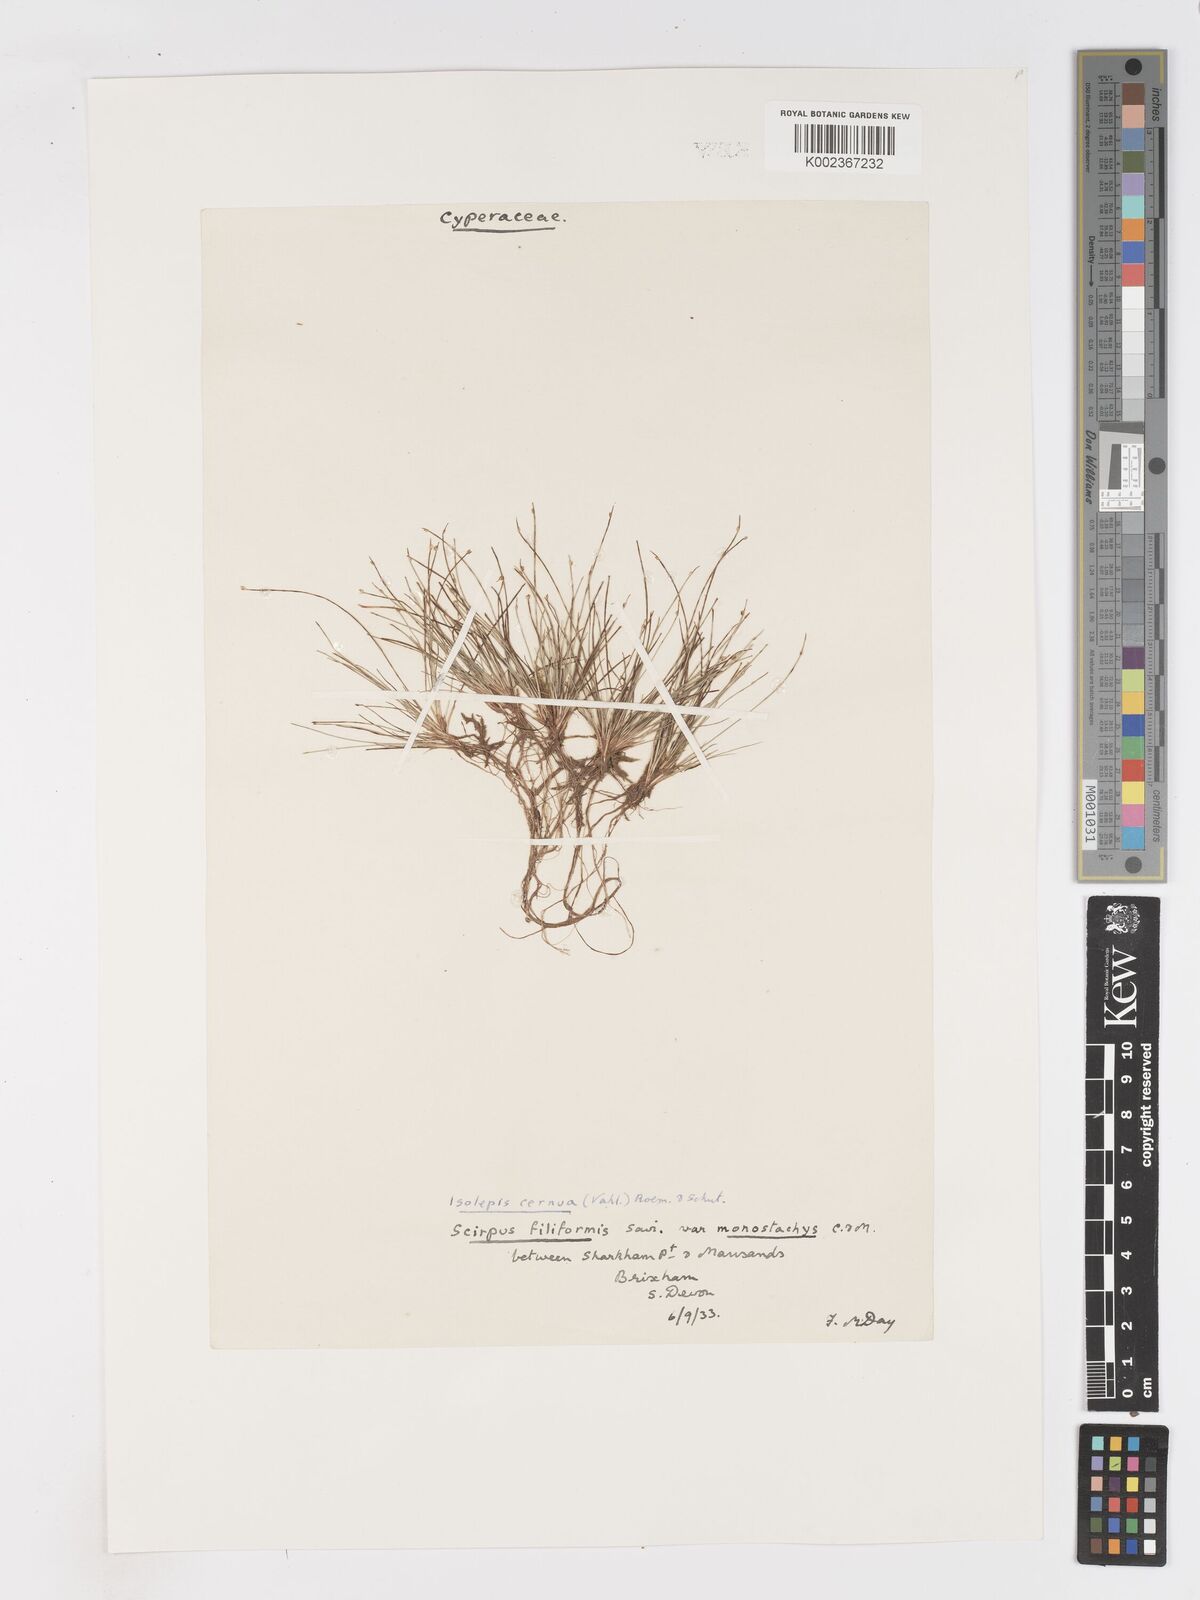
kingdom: Plantae
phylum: Tracheophyta
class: Liliopsida
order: Poales
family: Cyperaceae
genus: Isolepis
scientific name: Isolepis cernua
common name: Slender club-rush
